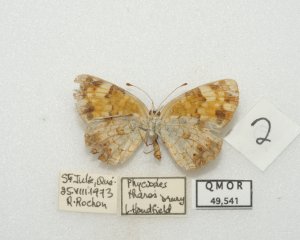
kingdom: Animalia
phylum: Arthropoda
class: Insecta
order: Lepidoptera
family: Nymphalidae
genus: Phyciodes
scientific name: Phyciodes tharos
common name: Northern Crescent
